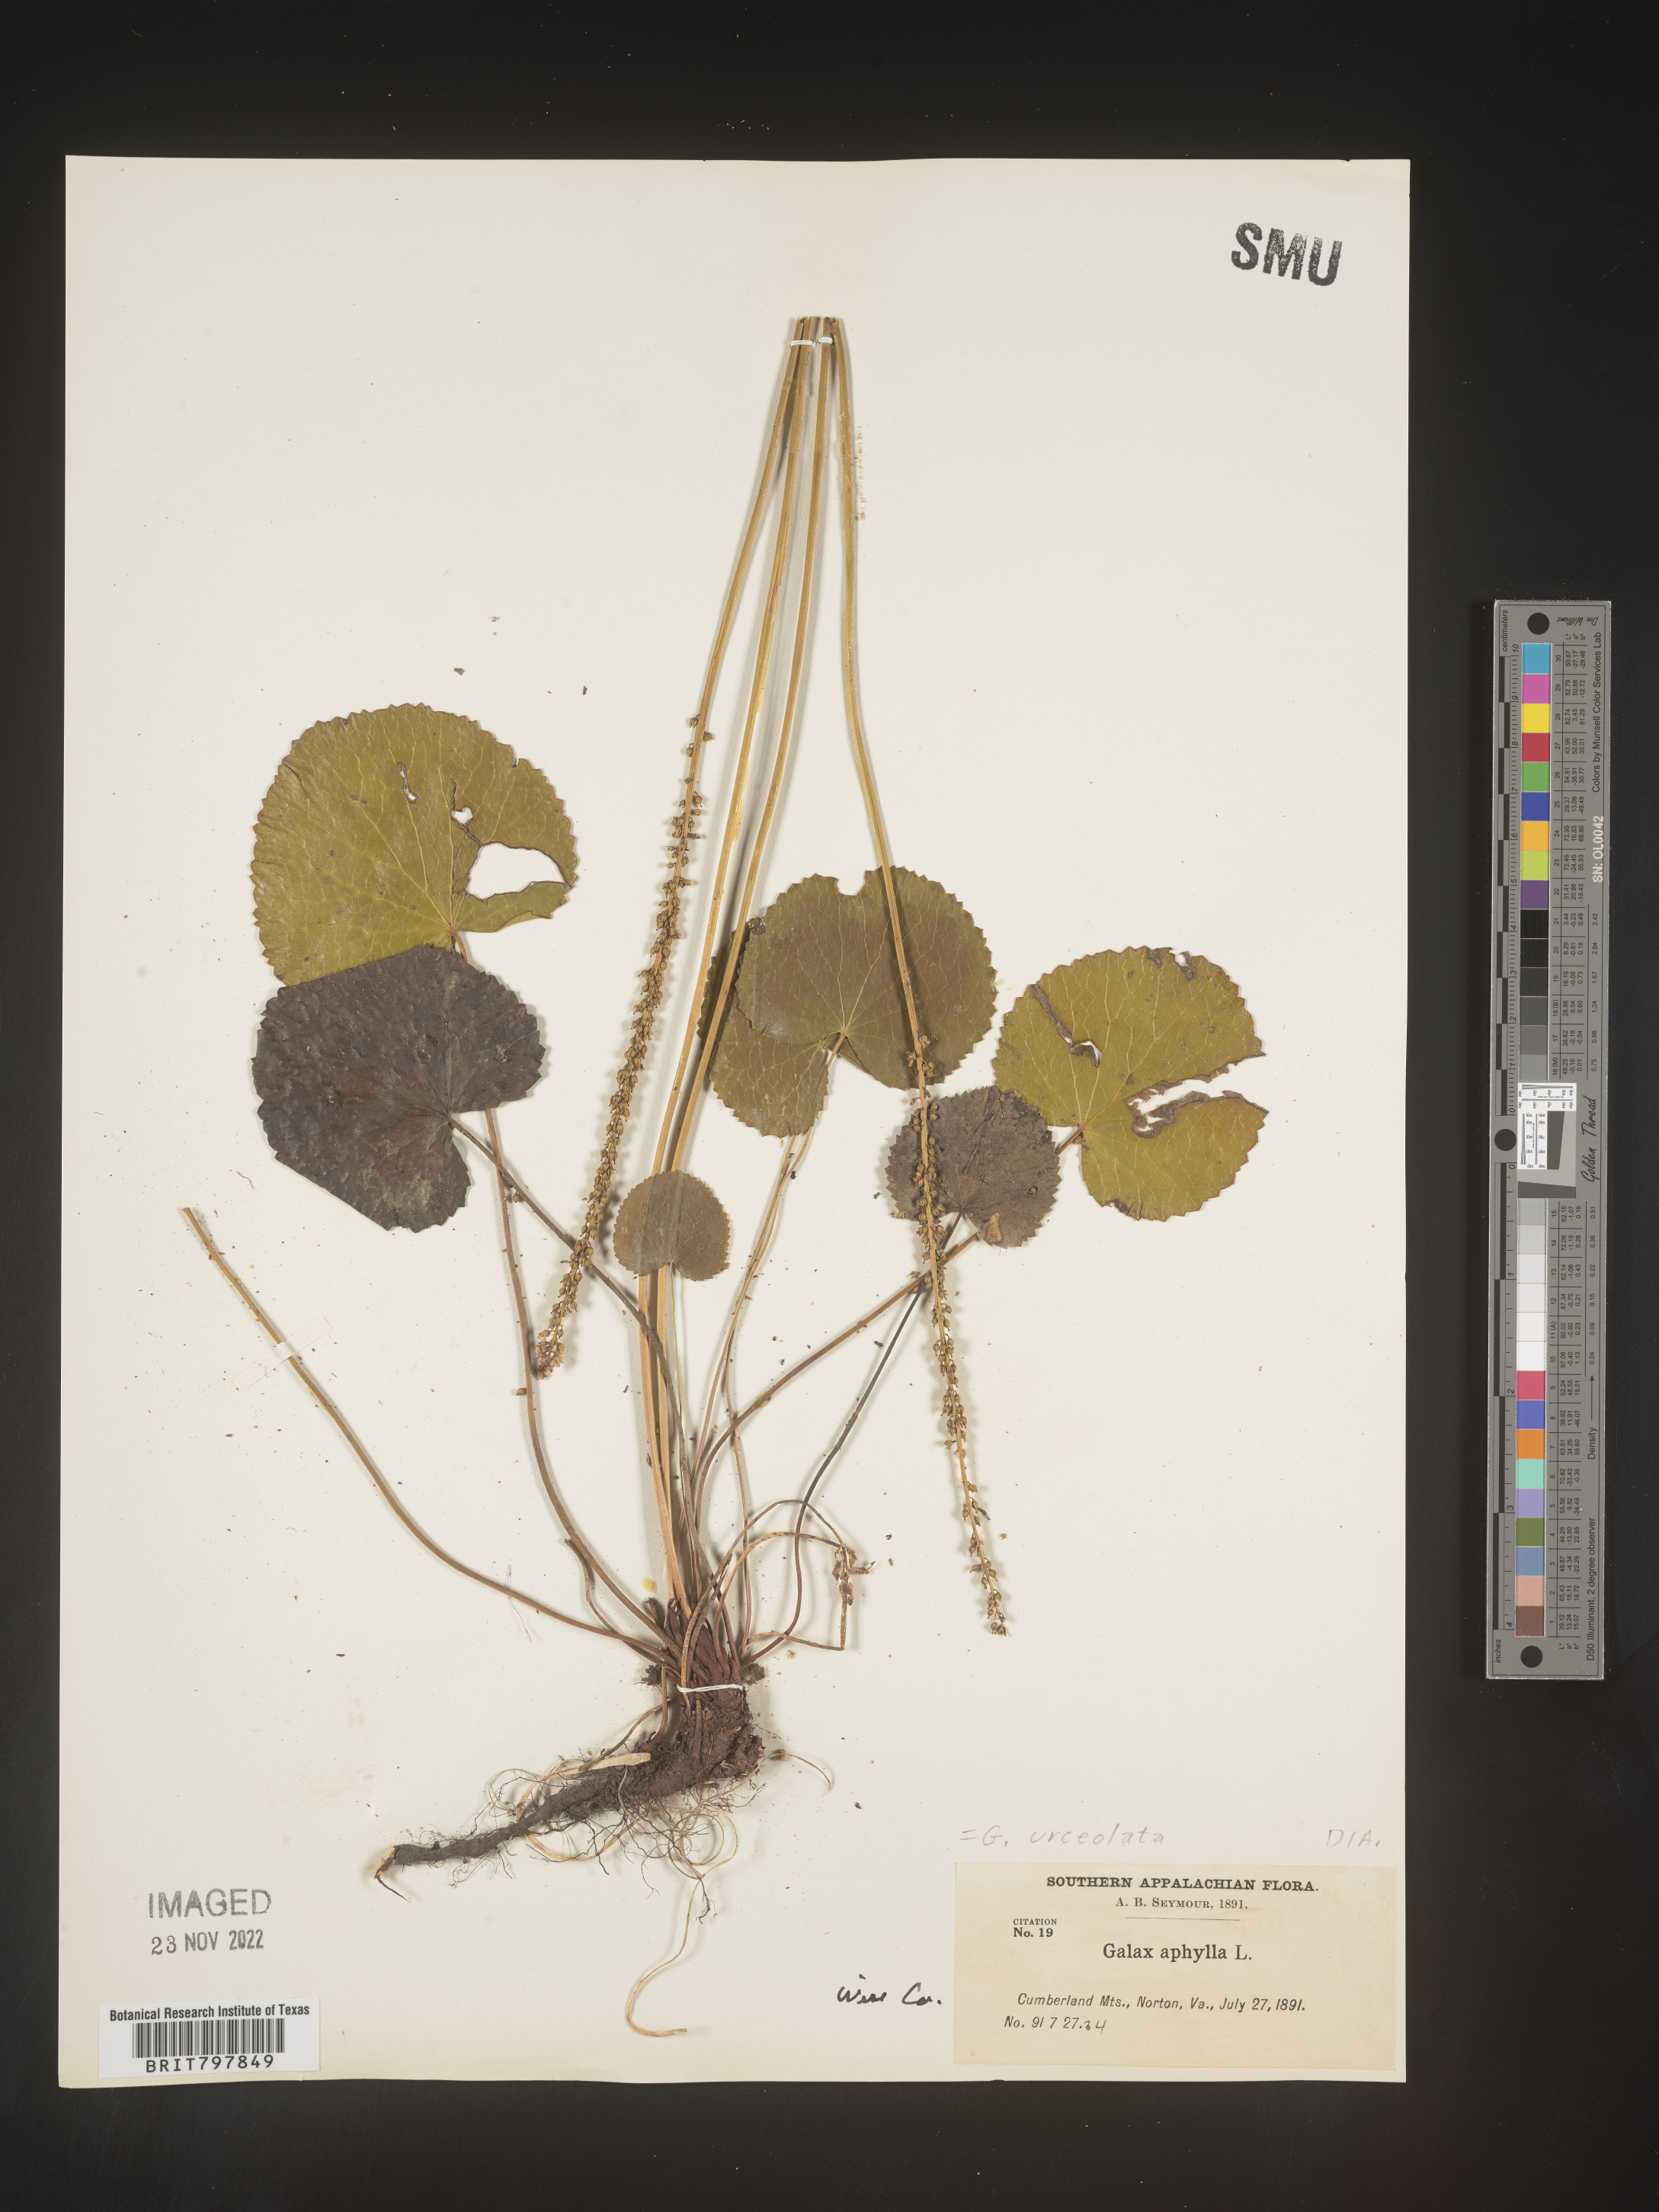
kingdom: Plantae
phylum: Tracheophyta
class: Magnoliopsida
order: Ericales
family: Diapensiaceae
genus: Galax
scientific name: Galax
